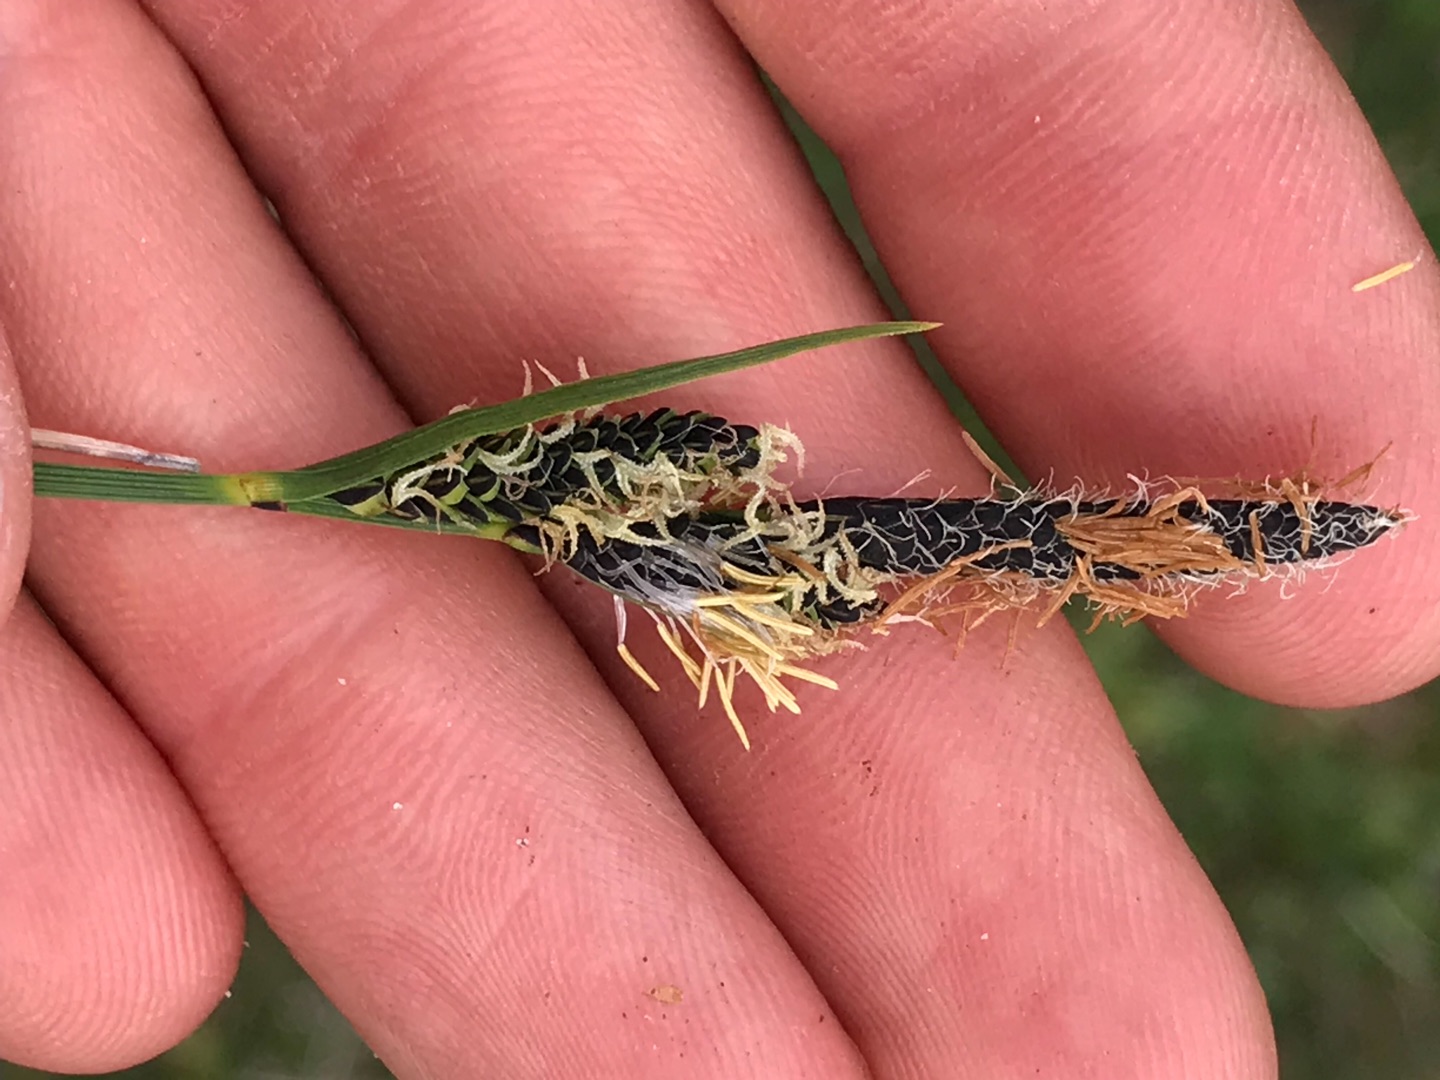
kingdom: Plantae
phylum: Tracheophyta
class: Liliopsida
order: Poales
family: Cyperaceae
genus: Carex
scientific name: Carex nigra
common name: Almindelig star
